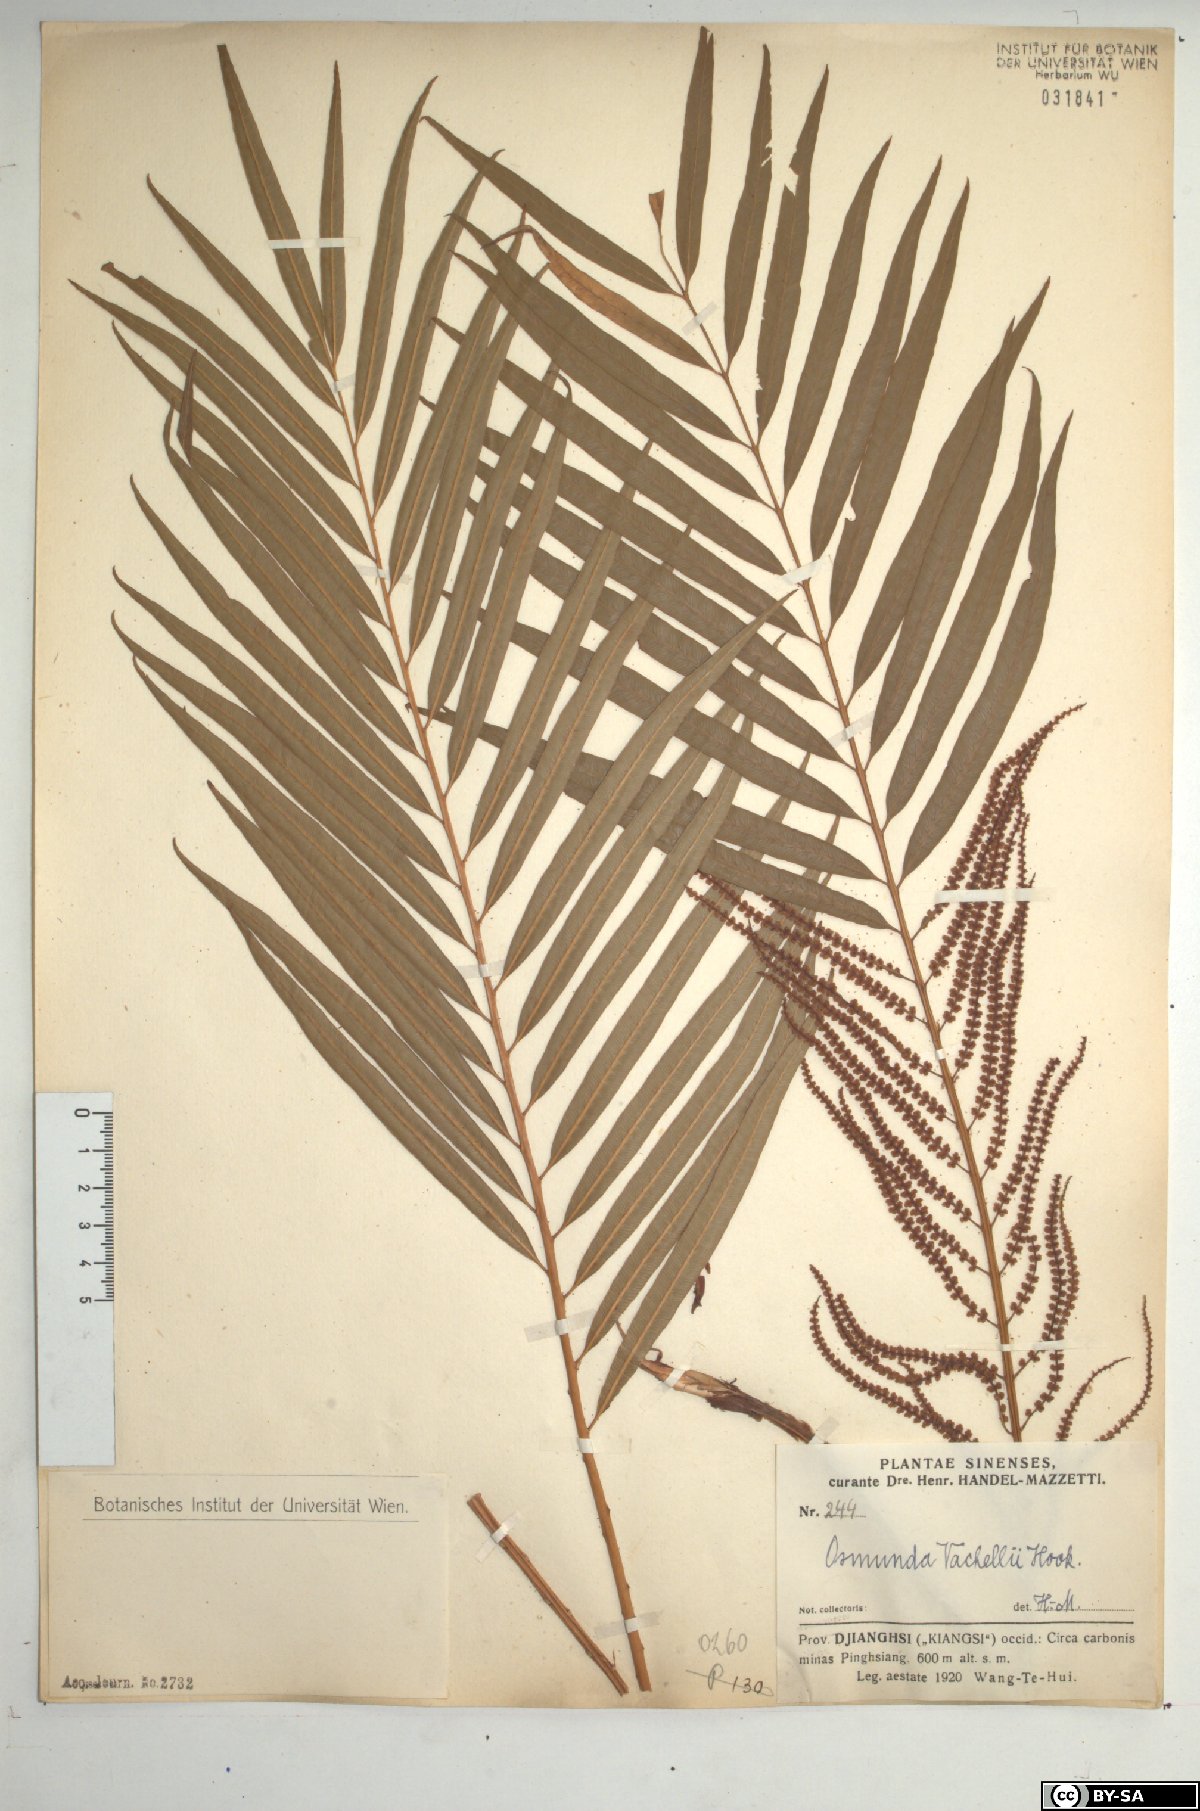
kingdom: Plantae
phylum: Tracheophyta
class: Polypodiopsida
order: Osmundales
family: Osmundaceae
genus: Plenasium
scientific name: Plenasium vachellii
